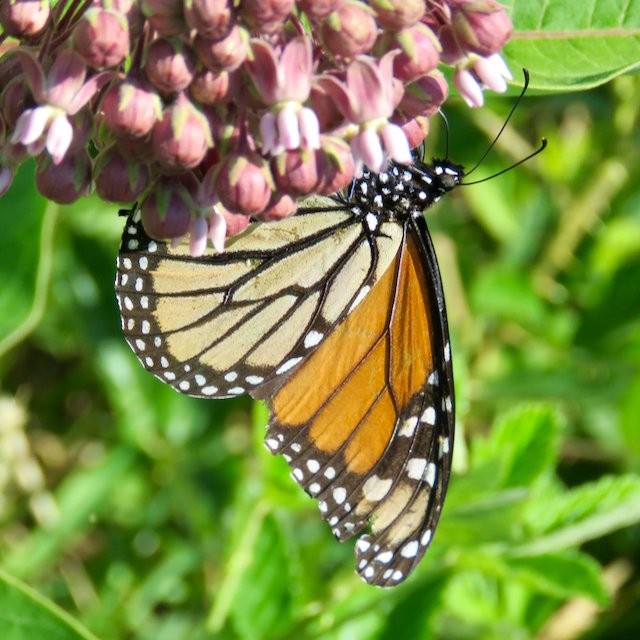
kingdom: Animalia
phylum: Arthropoda
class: Insecta
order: Lepidoptera
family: Nymphalidae
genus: Danaus
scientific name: Danaus plexippus
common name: Monarch
